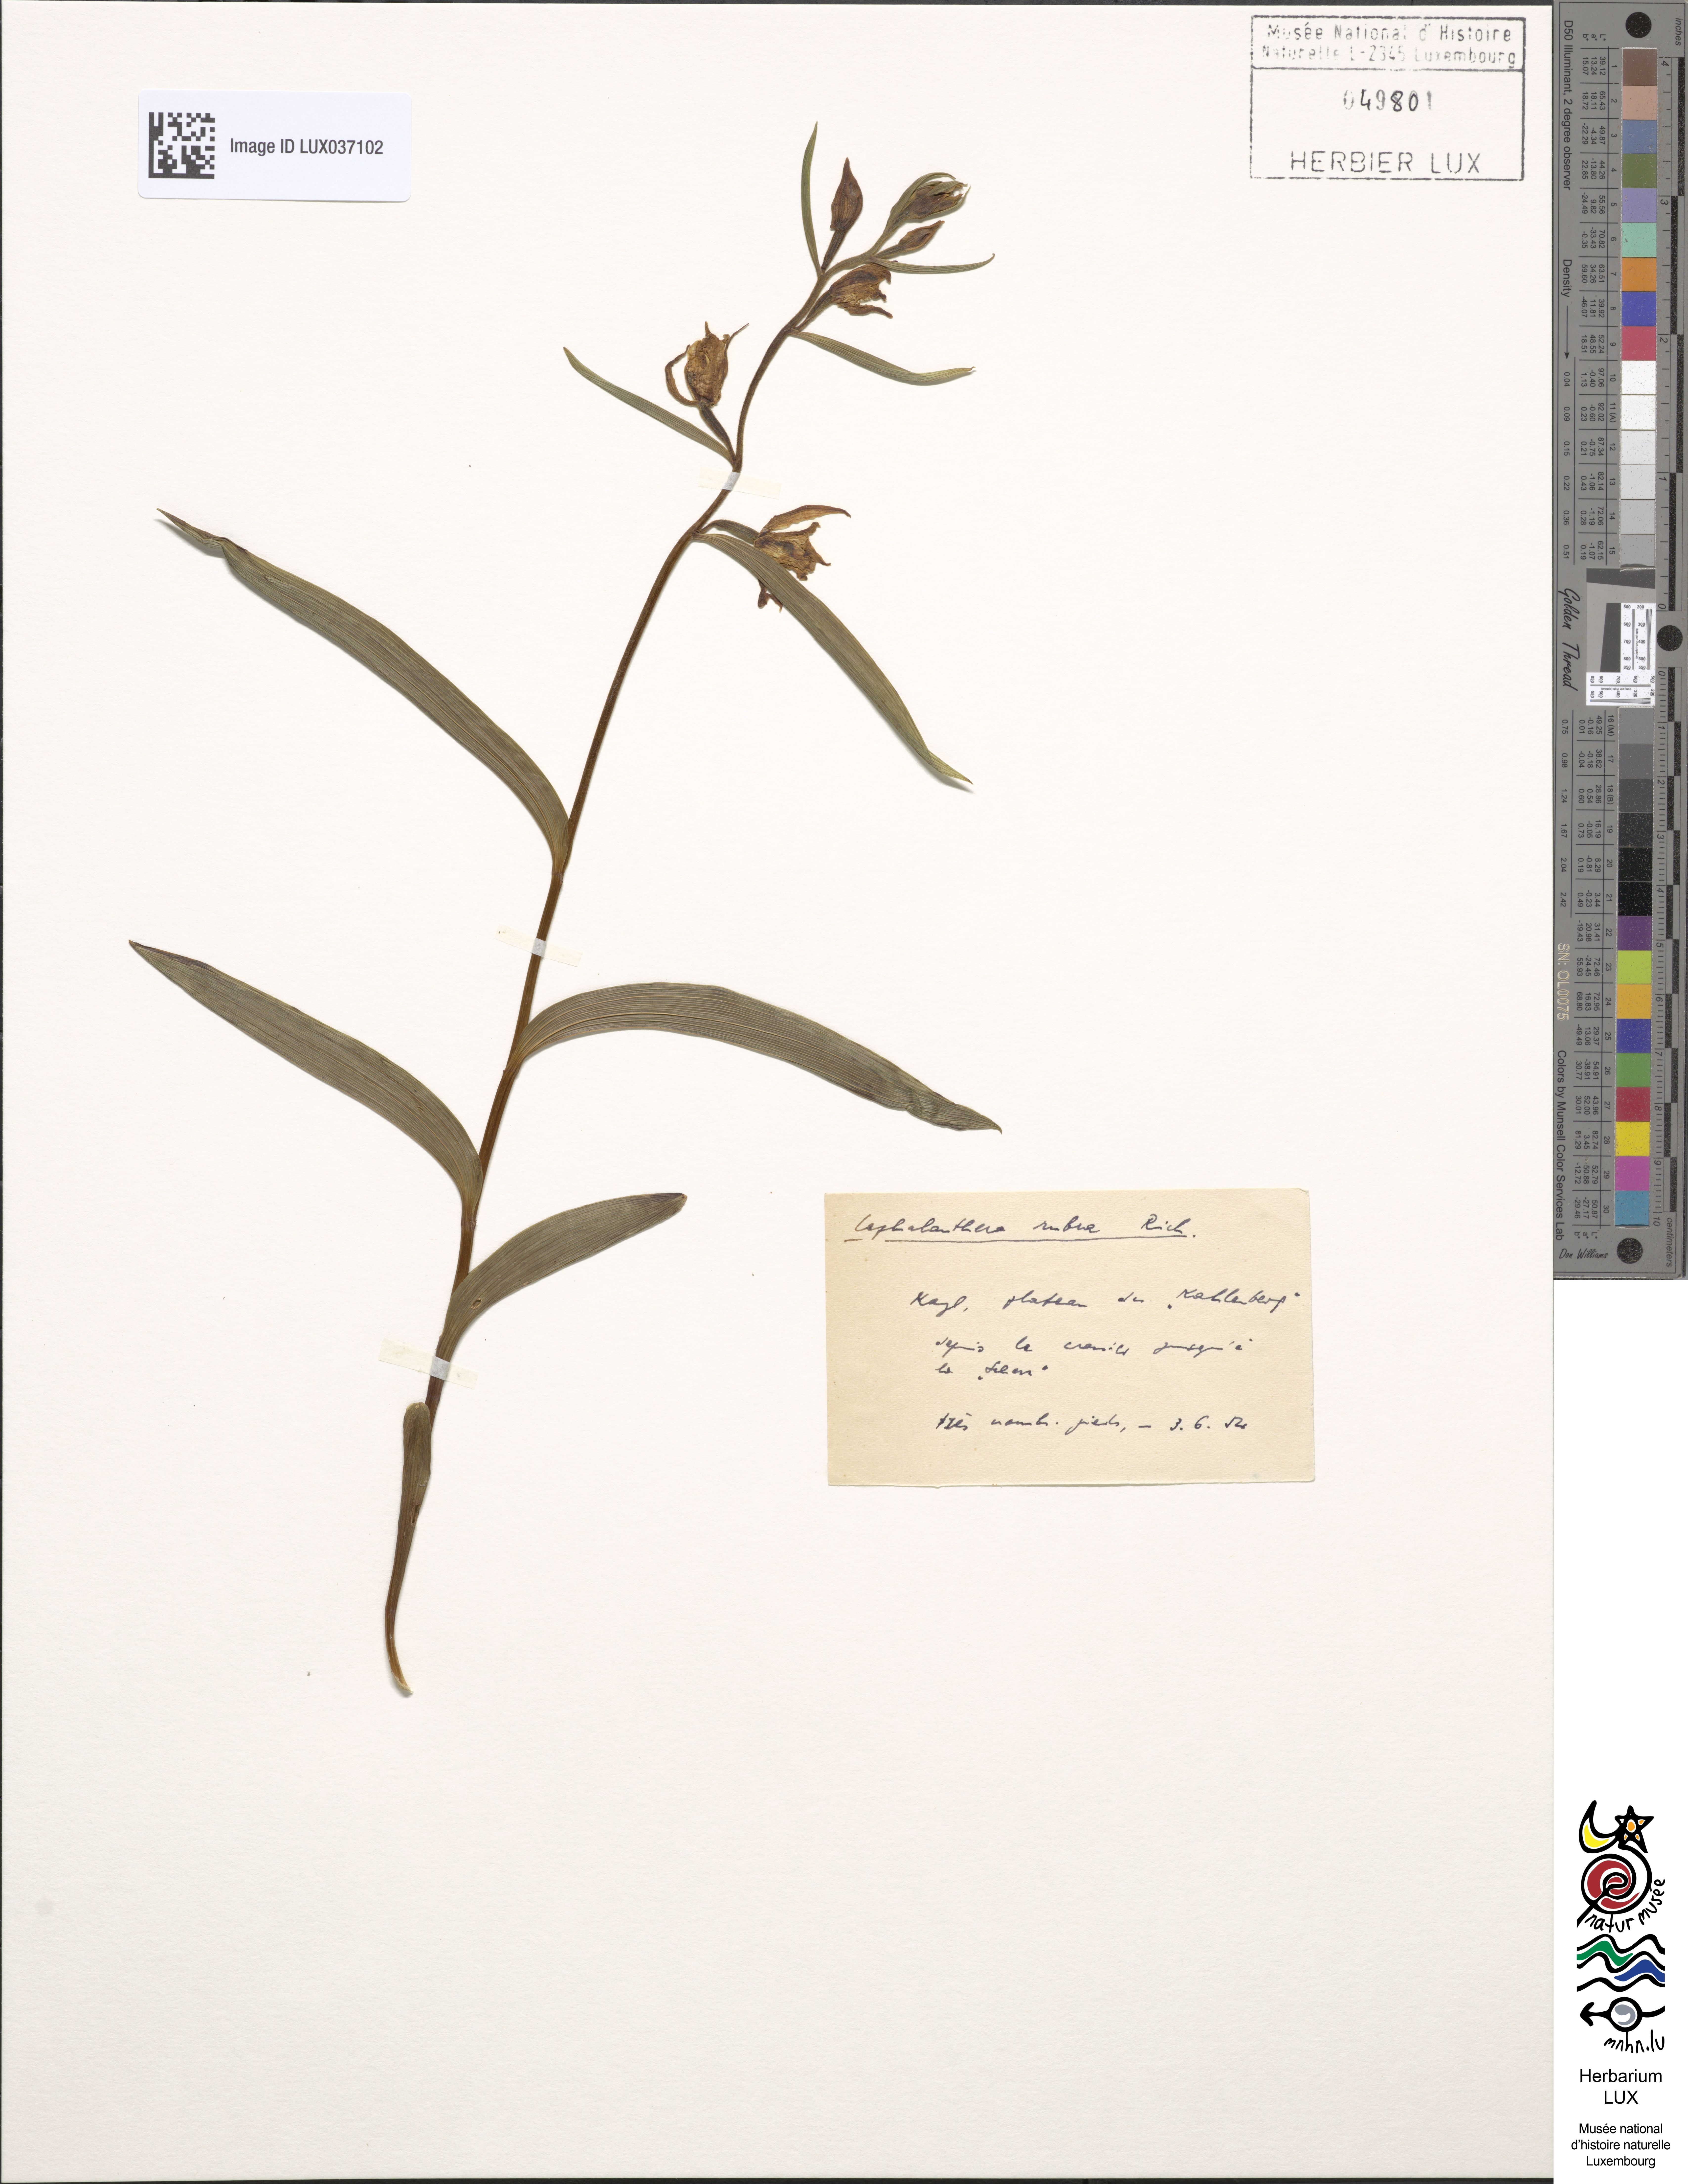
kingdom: Plantae
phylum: Tracheophyta
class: Liliopsida
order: Asparagales
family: Orchidaceae
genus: Cephalanthera
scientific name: Cephalanthera rubra
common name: Red helleborine
